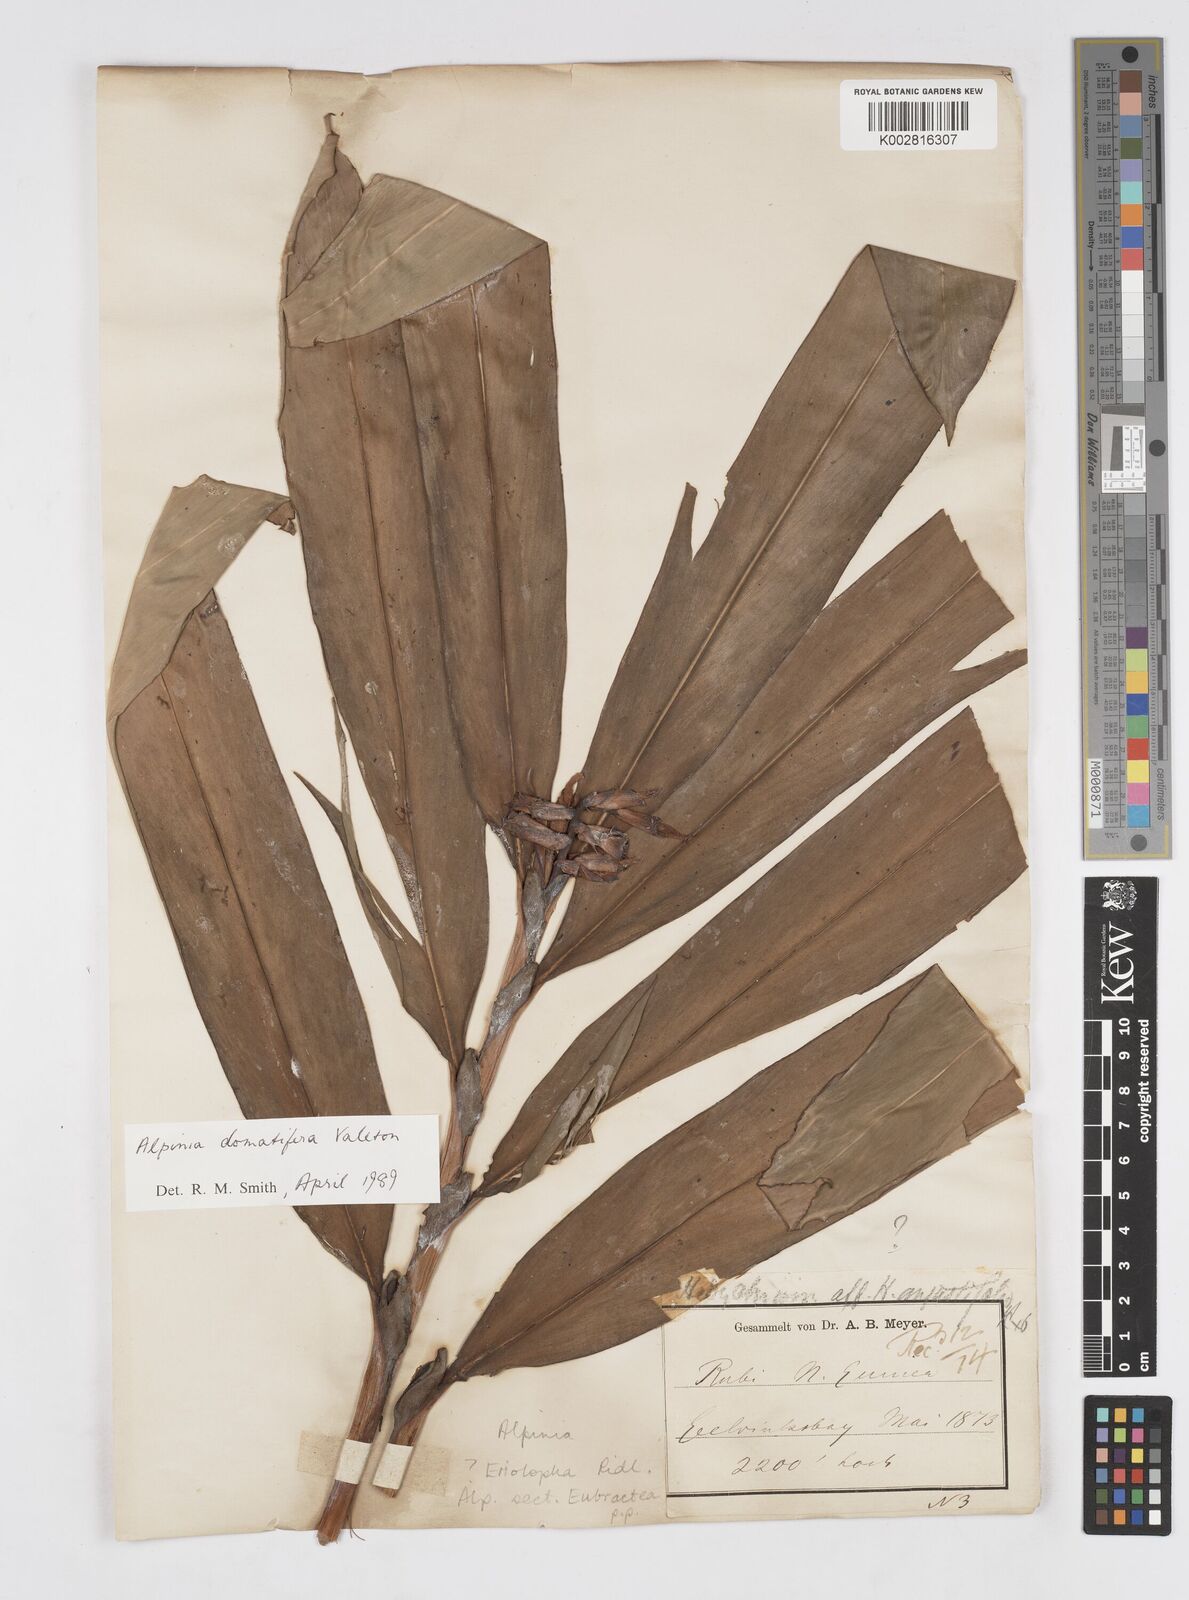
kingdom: Plantae
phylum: Tracheophyta
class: Liliopsida
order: Zingiberales
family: Zingiberaceae
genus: Alpinia
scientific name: Alpinia domatifera
